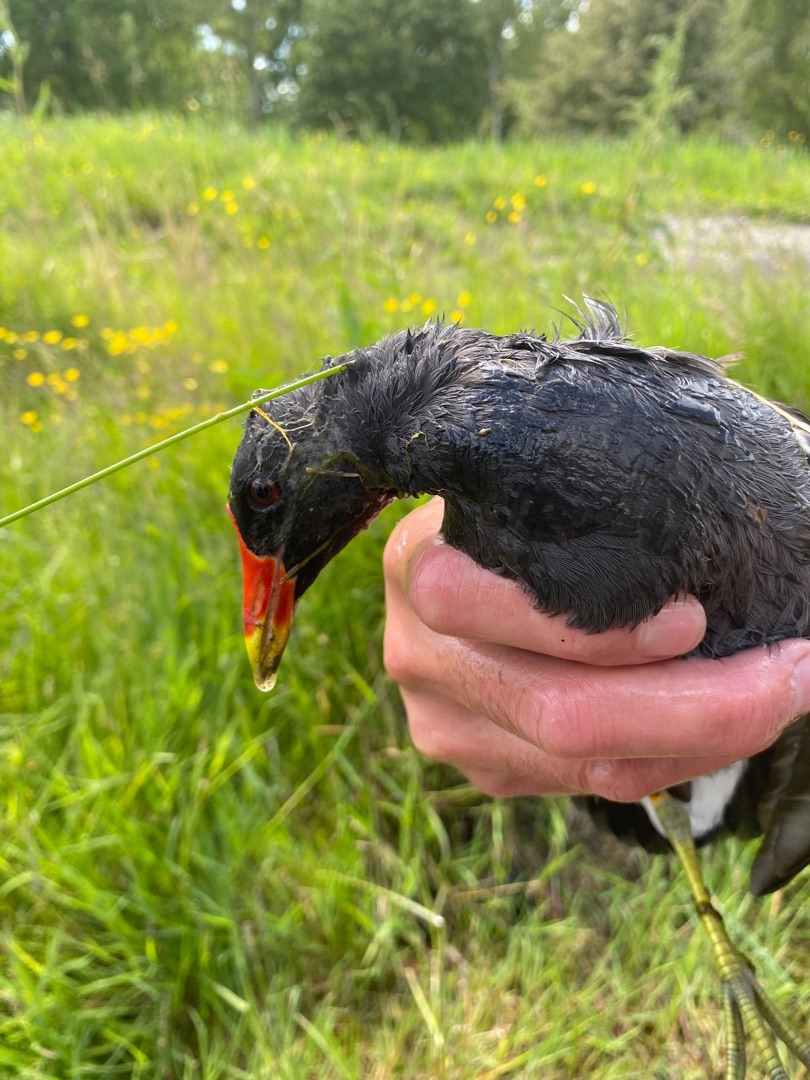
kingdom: Animalia
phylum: Chordata
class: Aves
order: Gruiformes
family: Rallidae
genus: Gallinula
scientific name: Gallinula chloropus
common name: Grønbenet rørhøne
